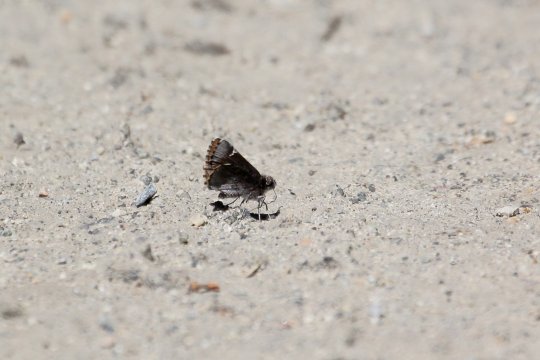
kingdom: Animalia
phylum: Arthropoda
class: Insecta
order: Lepidoptera
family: Hesperiidae
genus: Mastor
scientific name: Mastor vialis
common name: Common Roadside-Skipper
